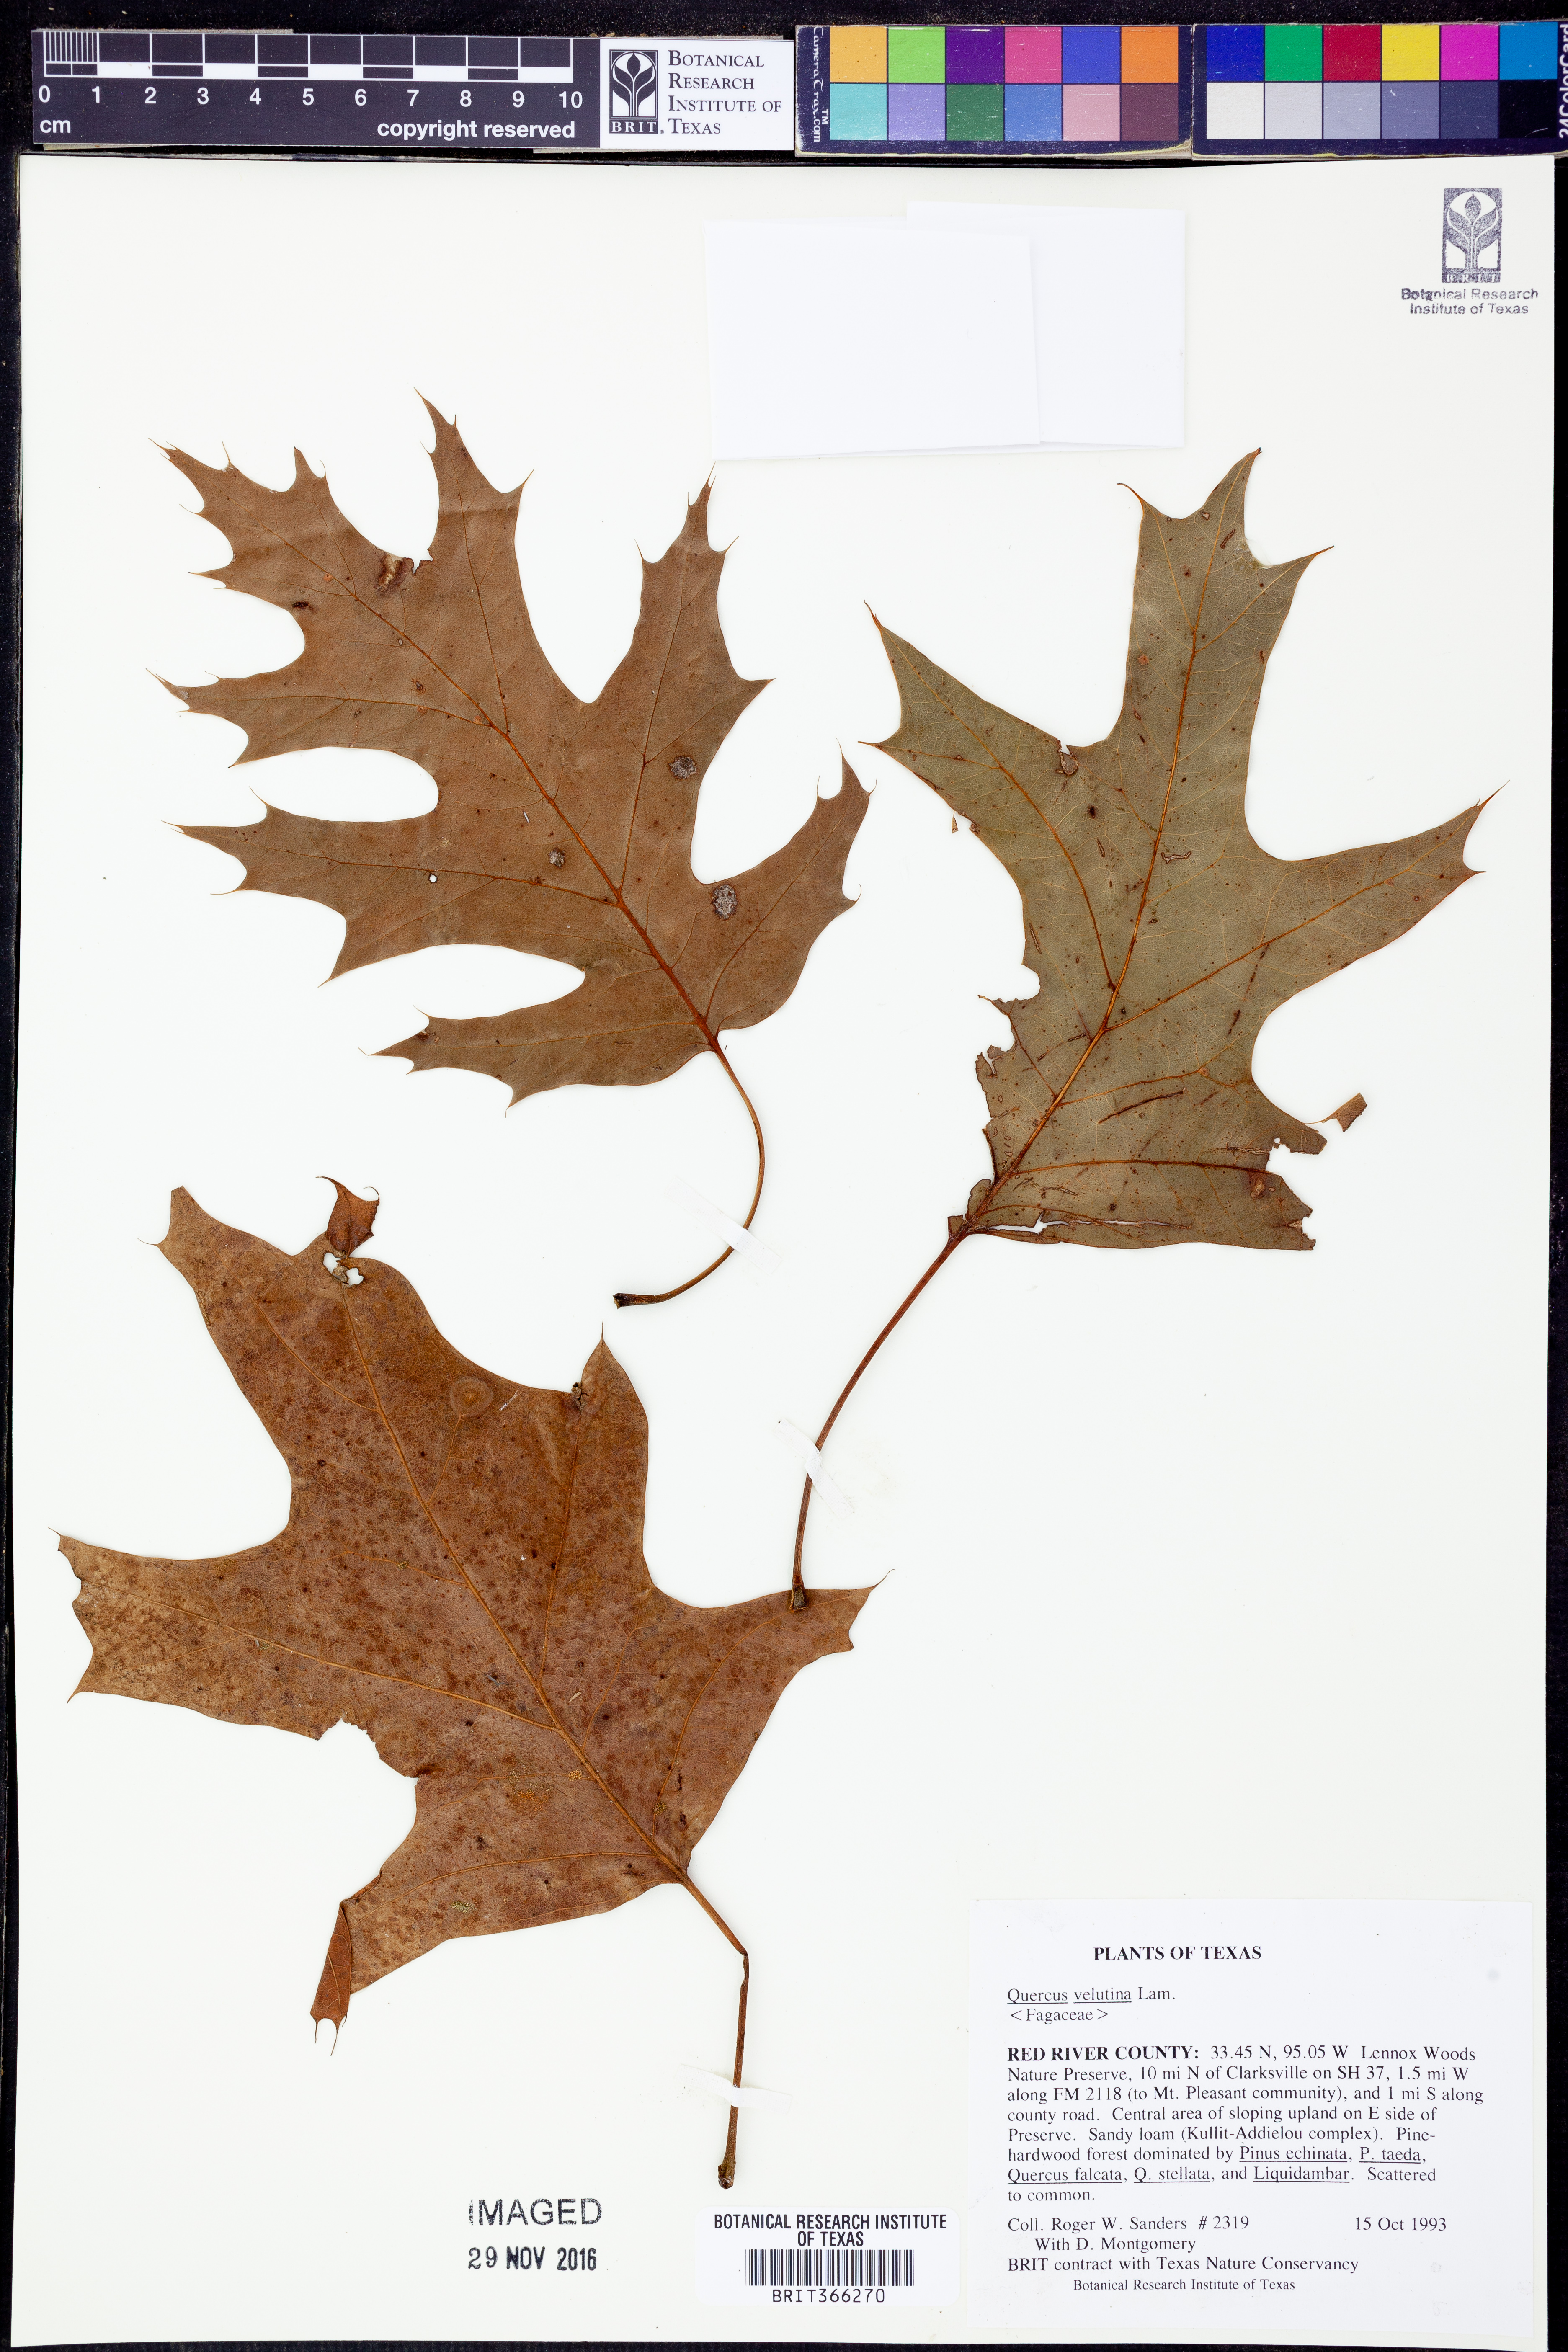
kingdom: Plantae
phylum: Tracheophyta
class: Magnoliopsida
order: Fagales
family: Fagaceae
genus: Quercus
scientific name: Quercus velutina
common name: Black oak
